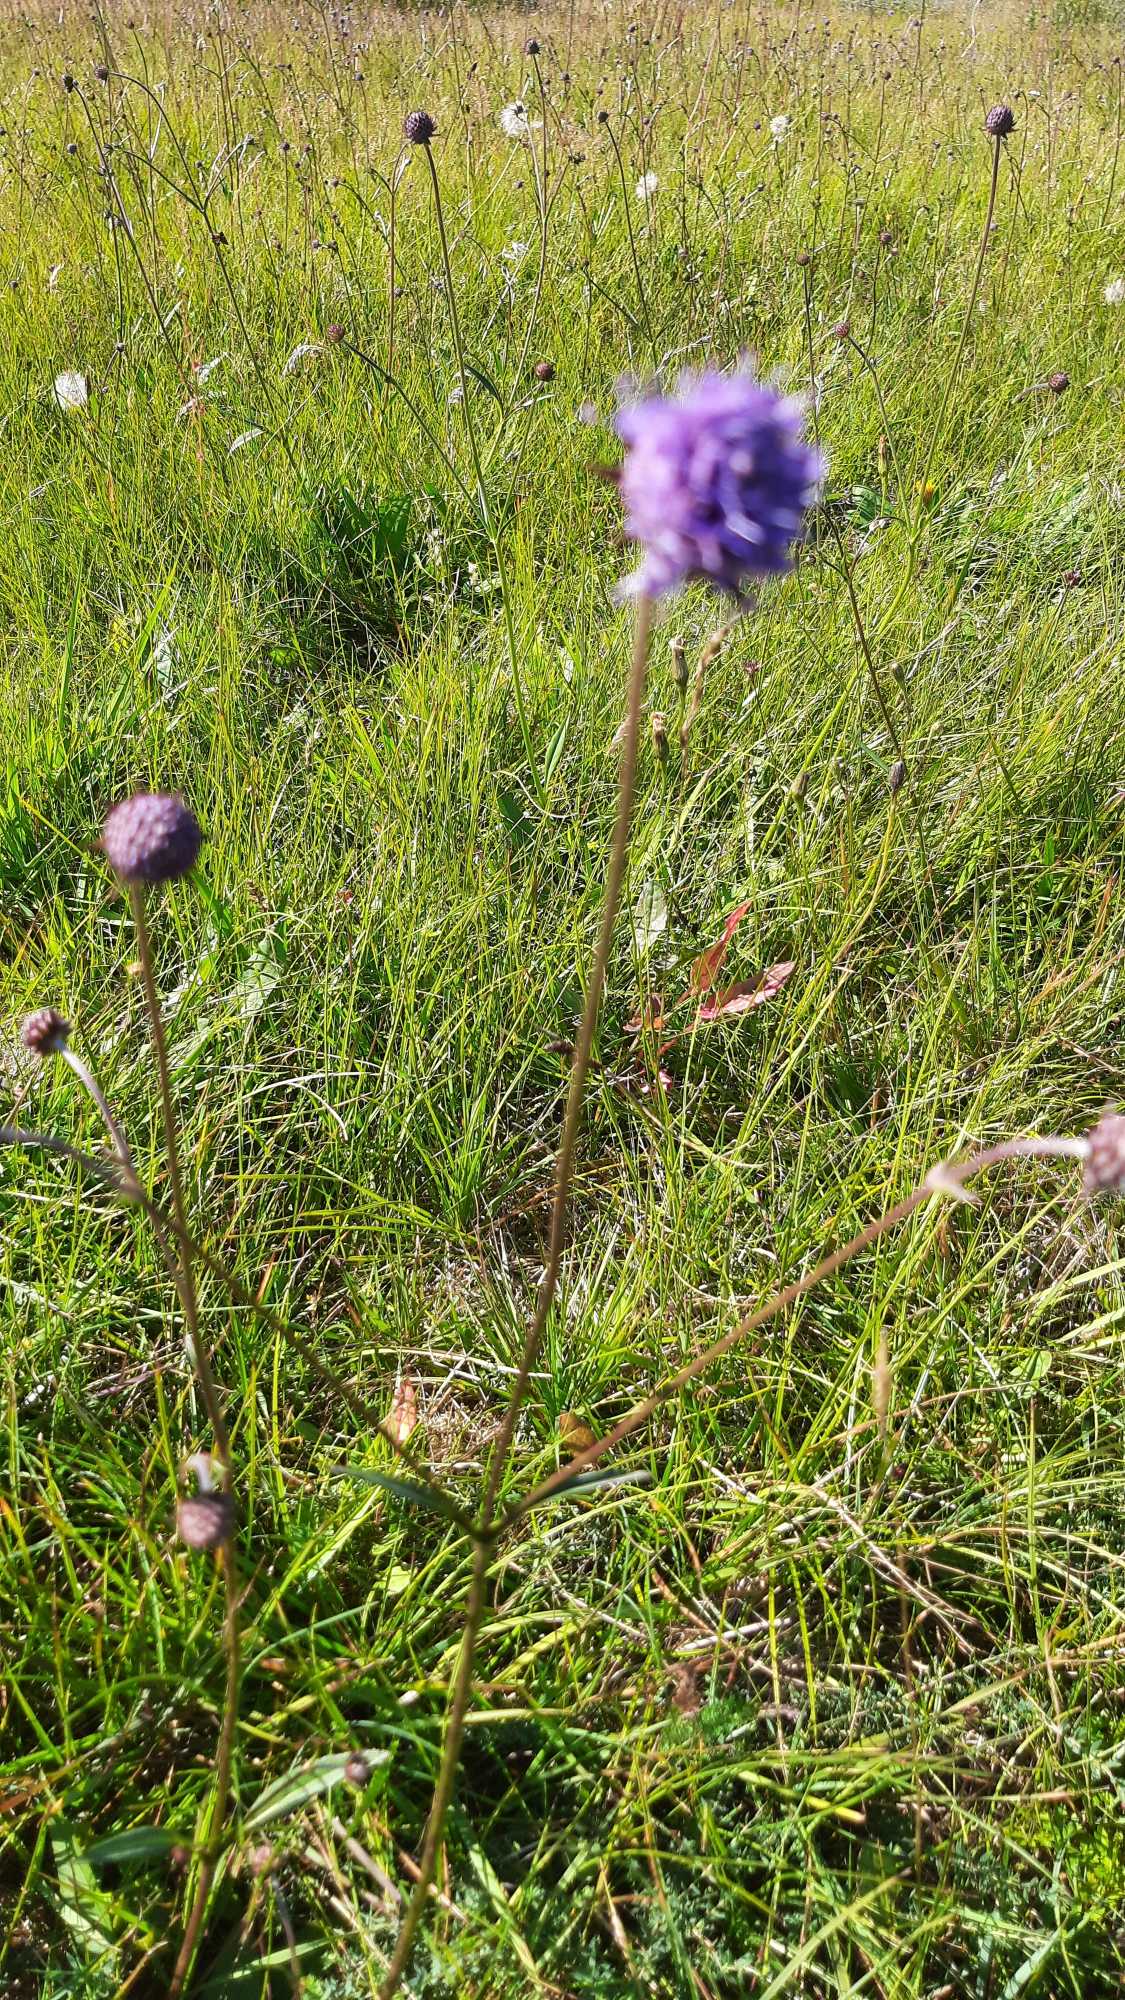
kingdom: Plantae
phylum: Tracheophyta
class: Magnoliopsida
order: Dipsacales
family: Caprifoliaceae
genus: Succisa
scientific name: Succisa pratensis
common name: Djævelsbid
